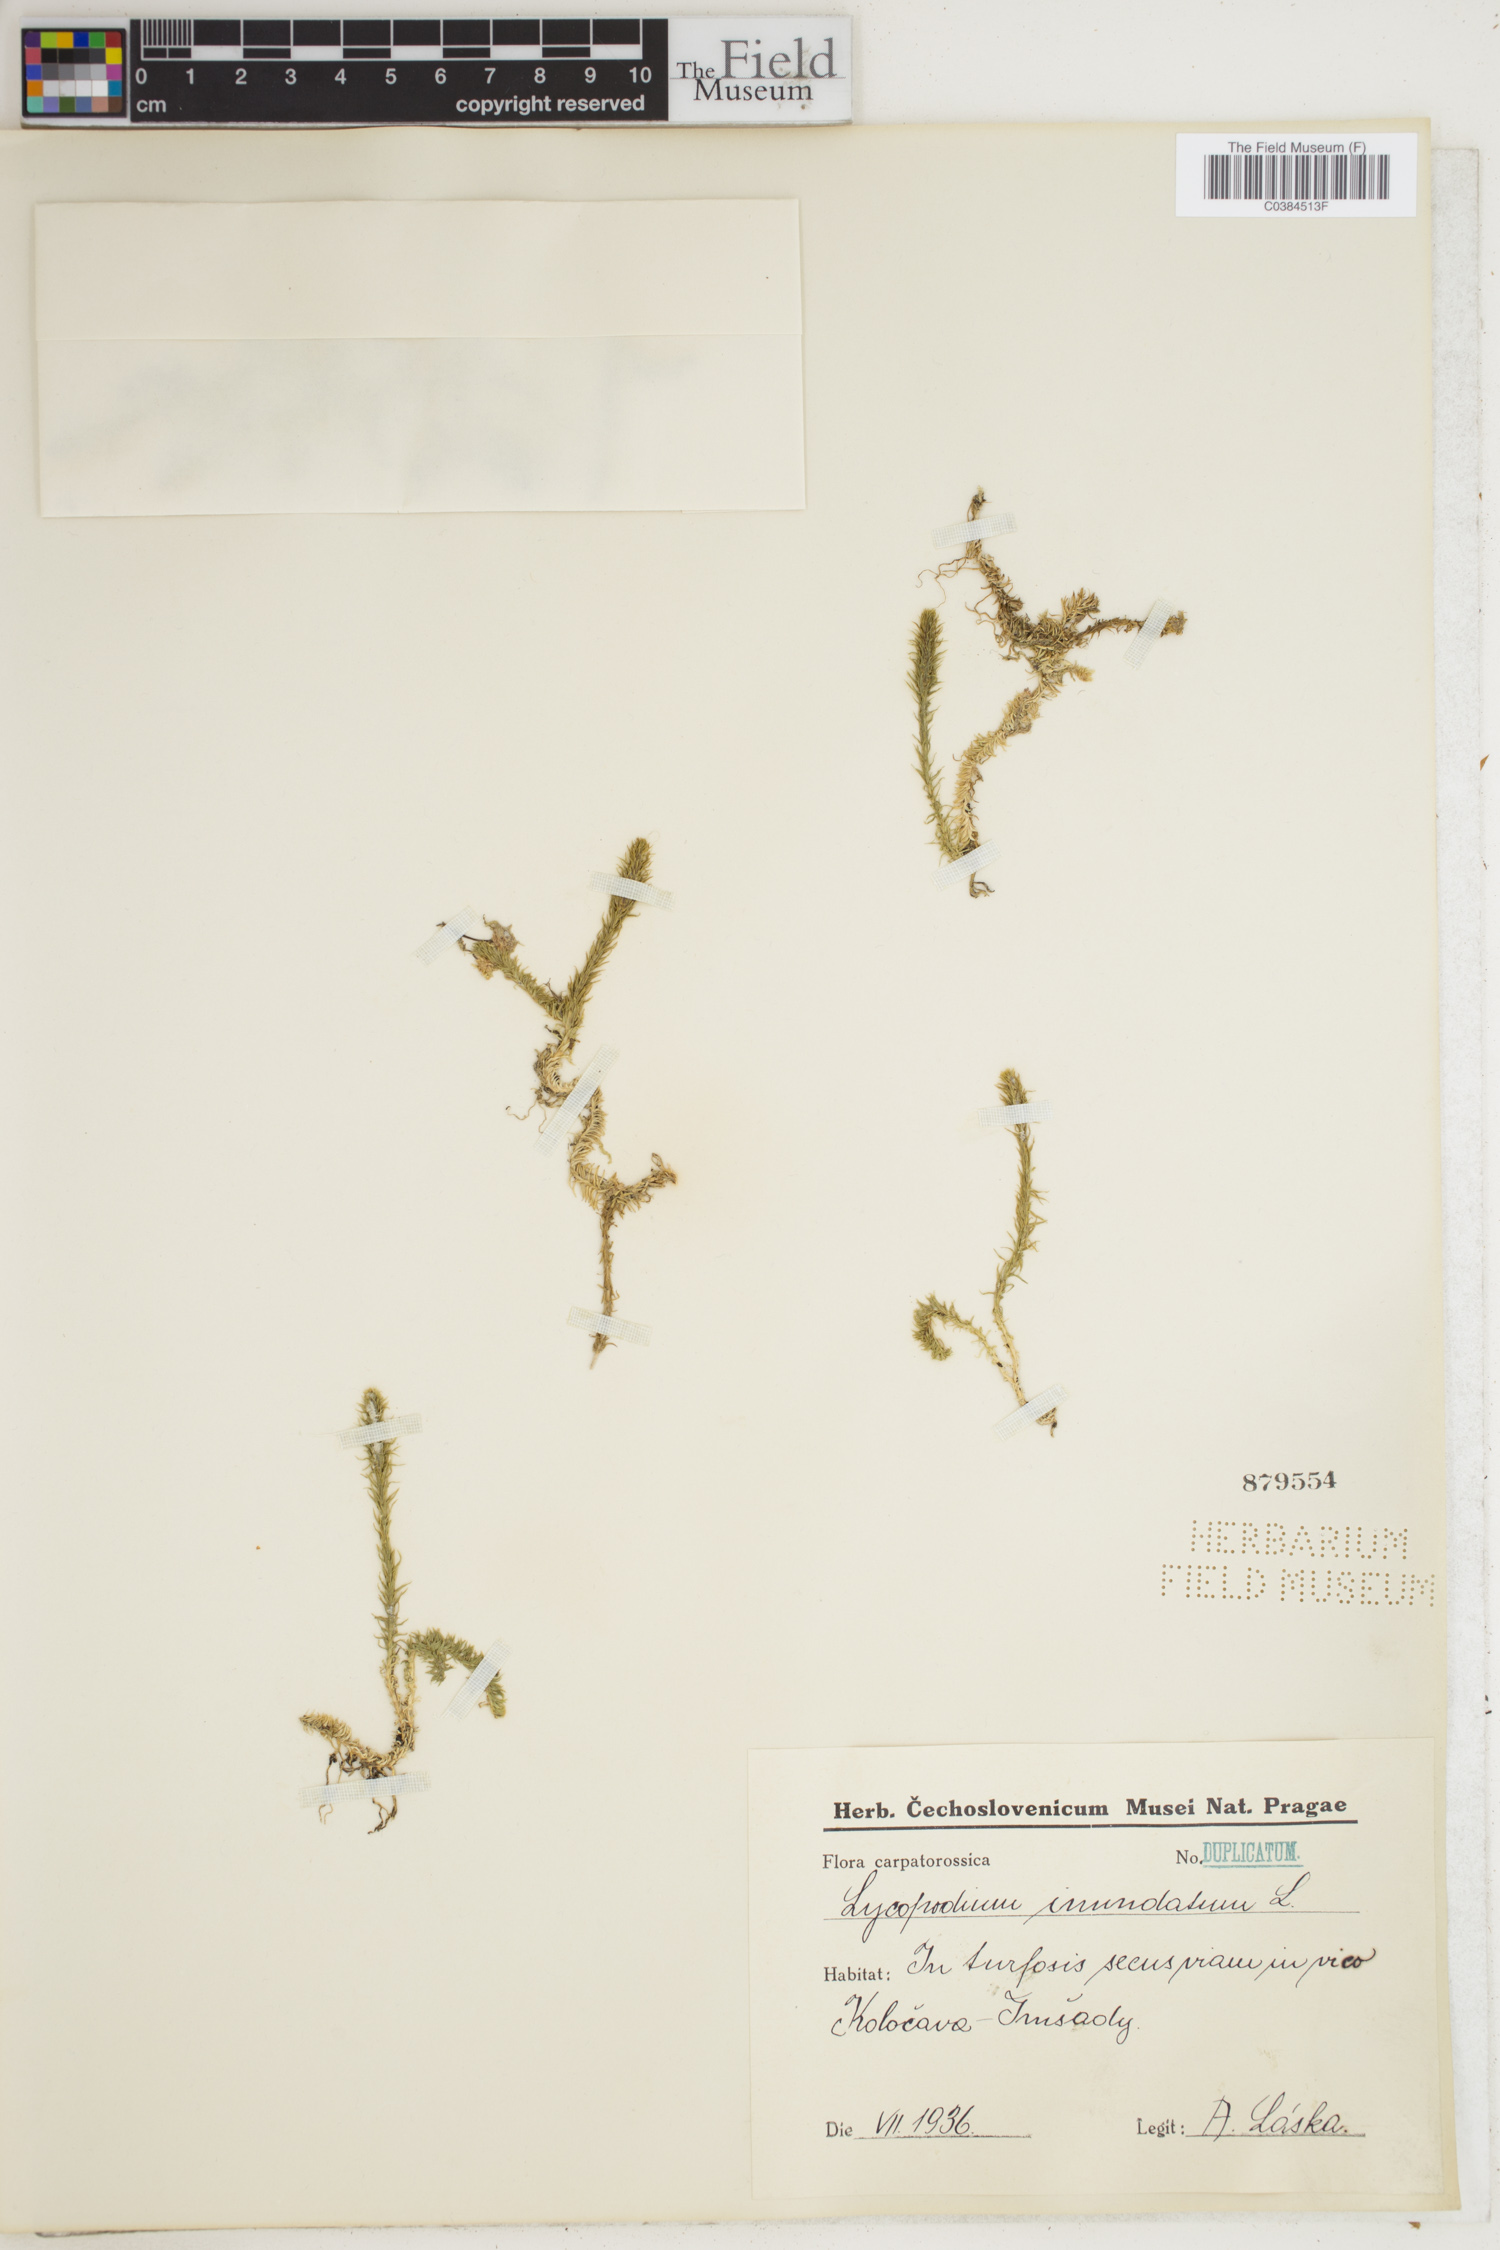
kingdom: Plantae
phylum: Tracheophyta
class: Lycopodiopsida
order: Lycopodiales
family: Lycopodiaceae
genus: Lycopodiella
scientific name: Lycopodiella inundata
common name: Marsh clubmoss
